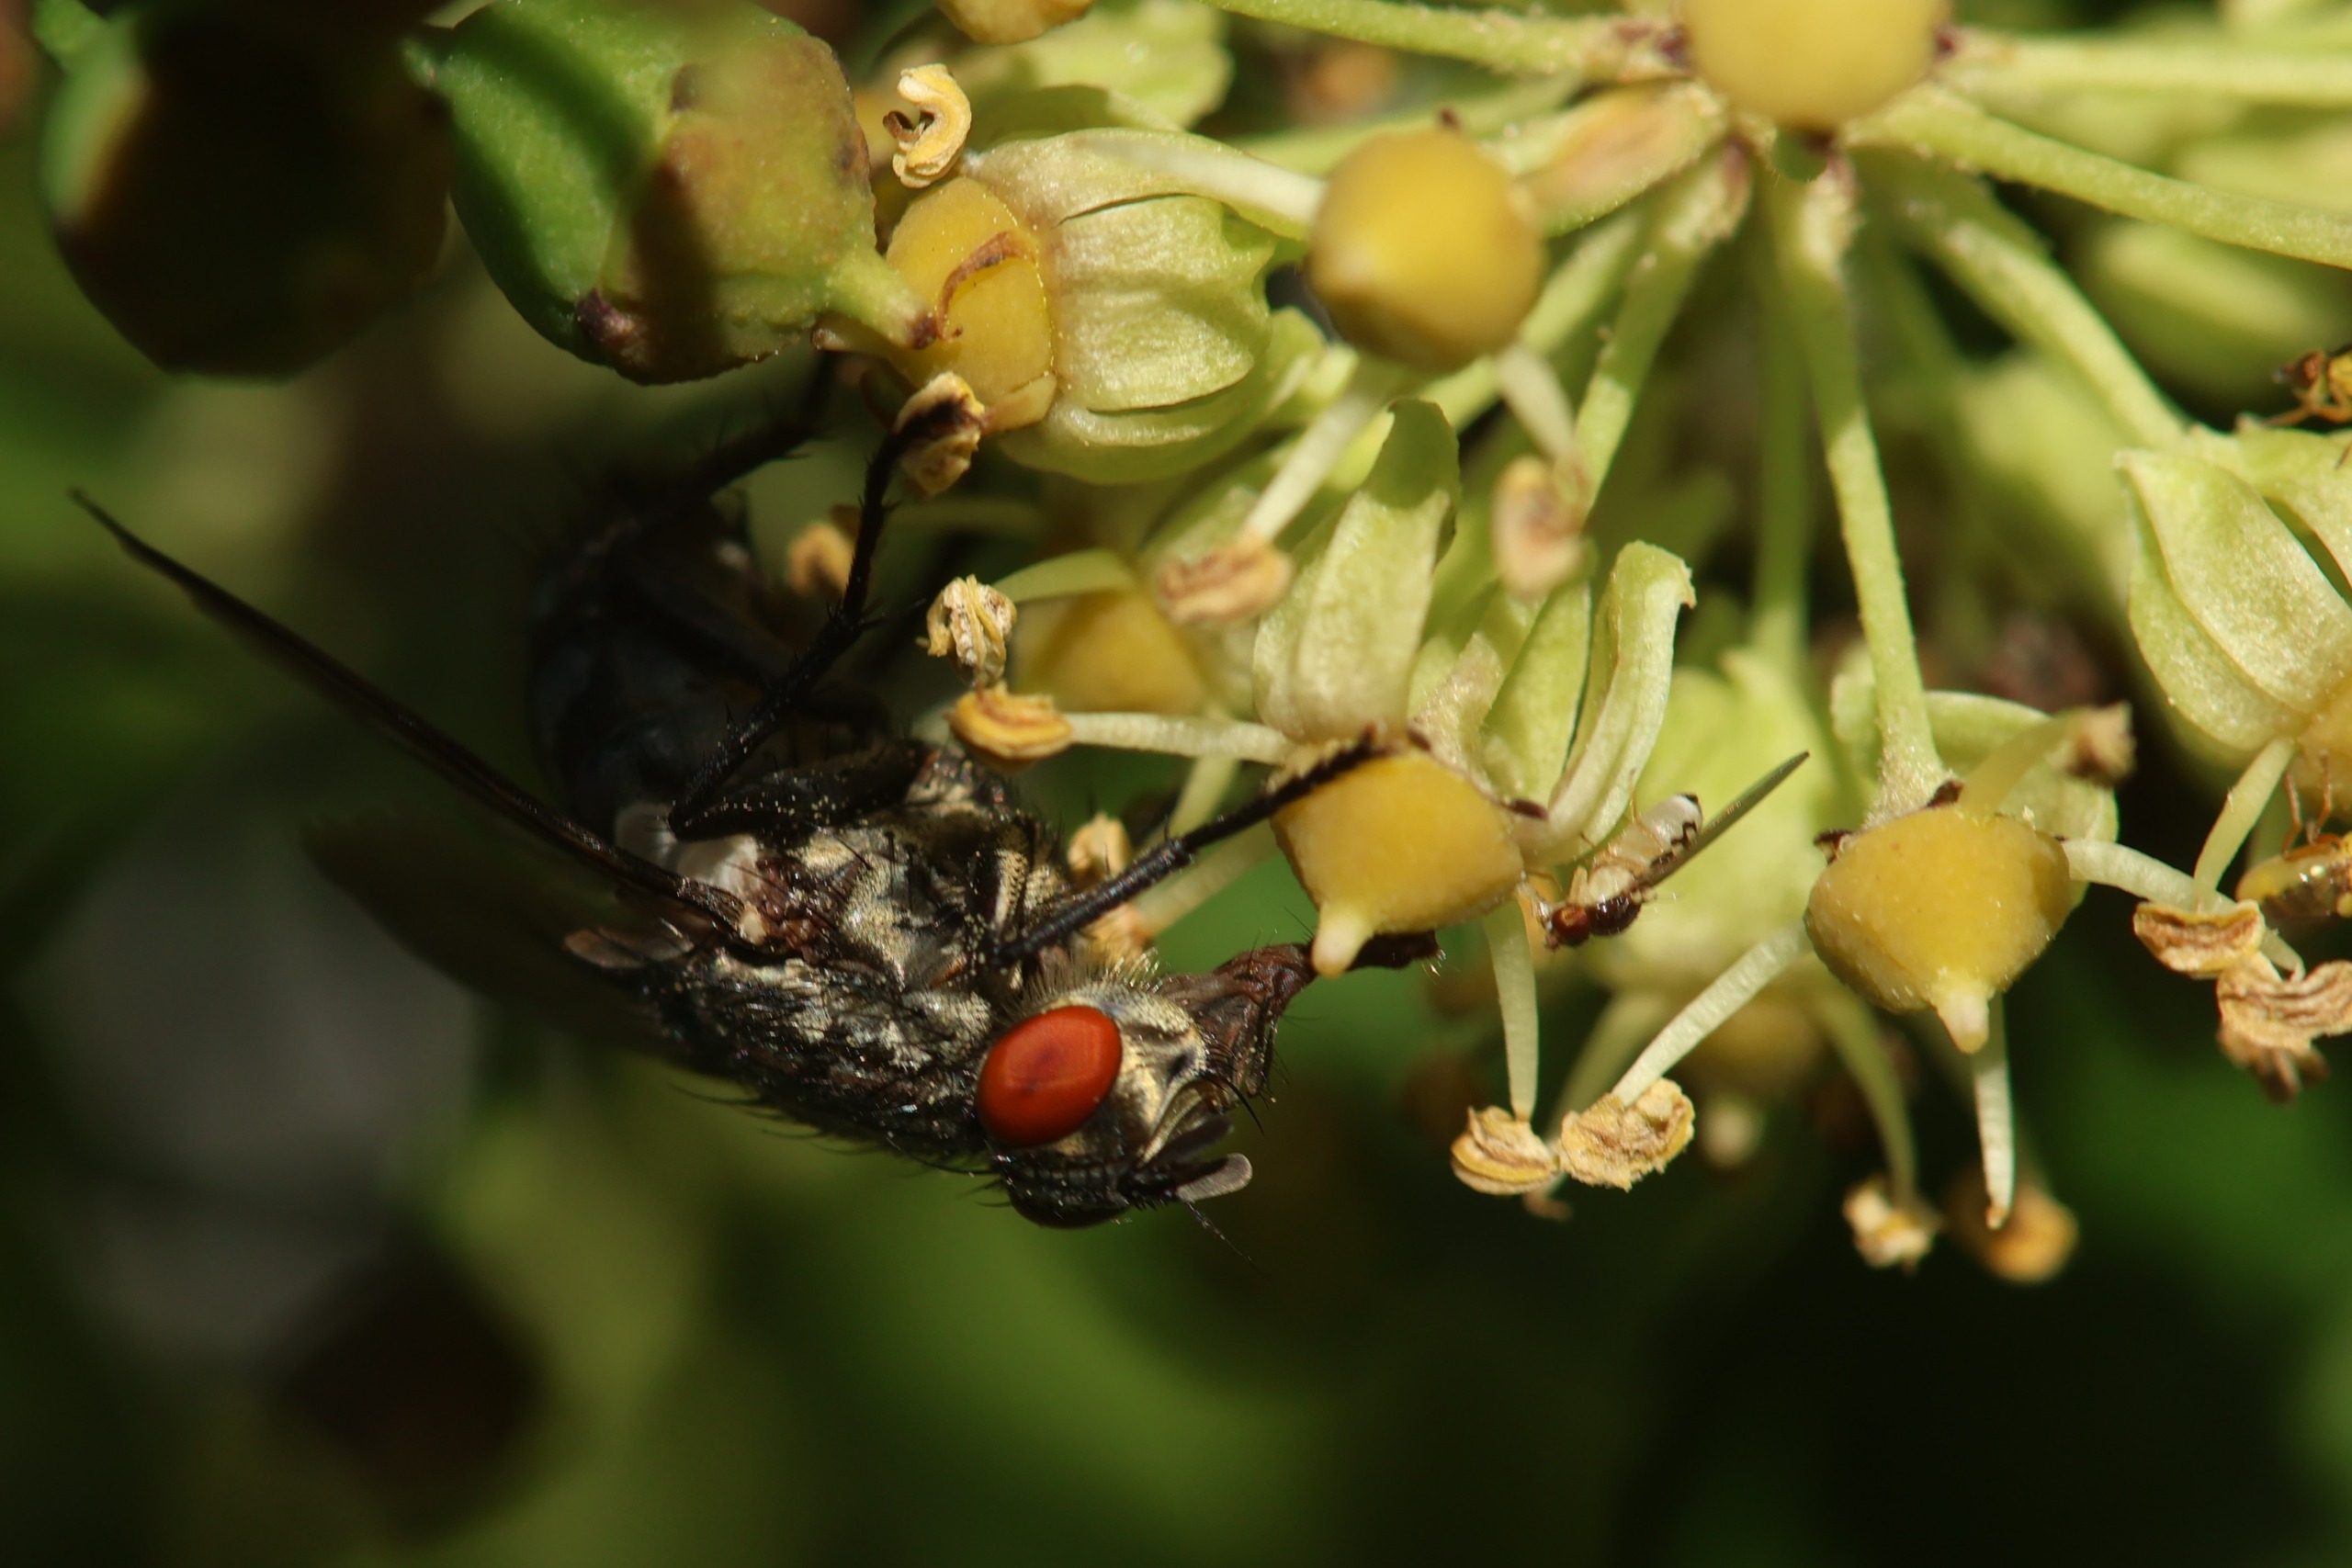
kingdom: Animalia
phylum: Arthropoda
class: Insecta
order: Diptera
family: Sarcophagidae
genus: Sarcophaga
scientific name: Sarcophaga
